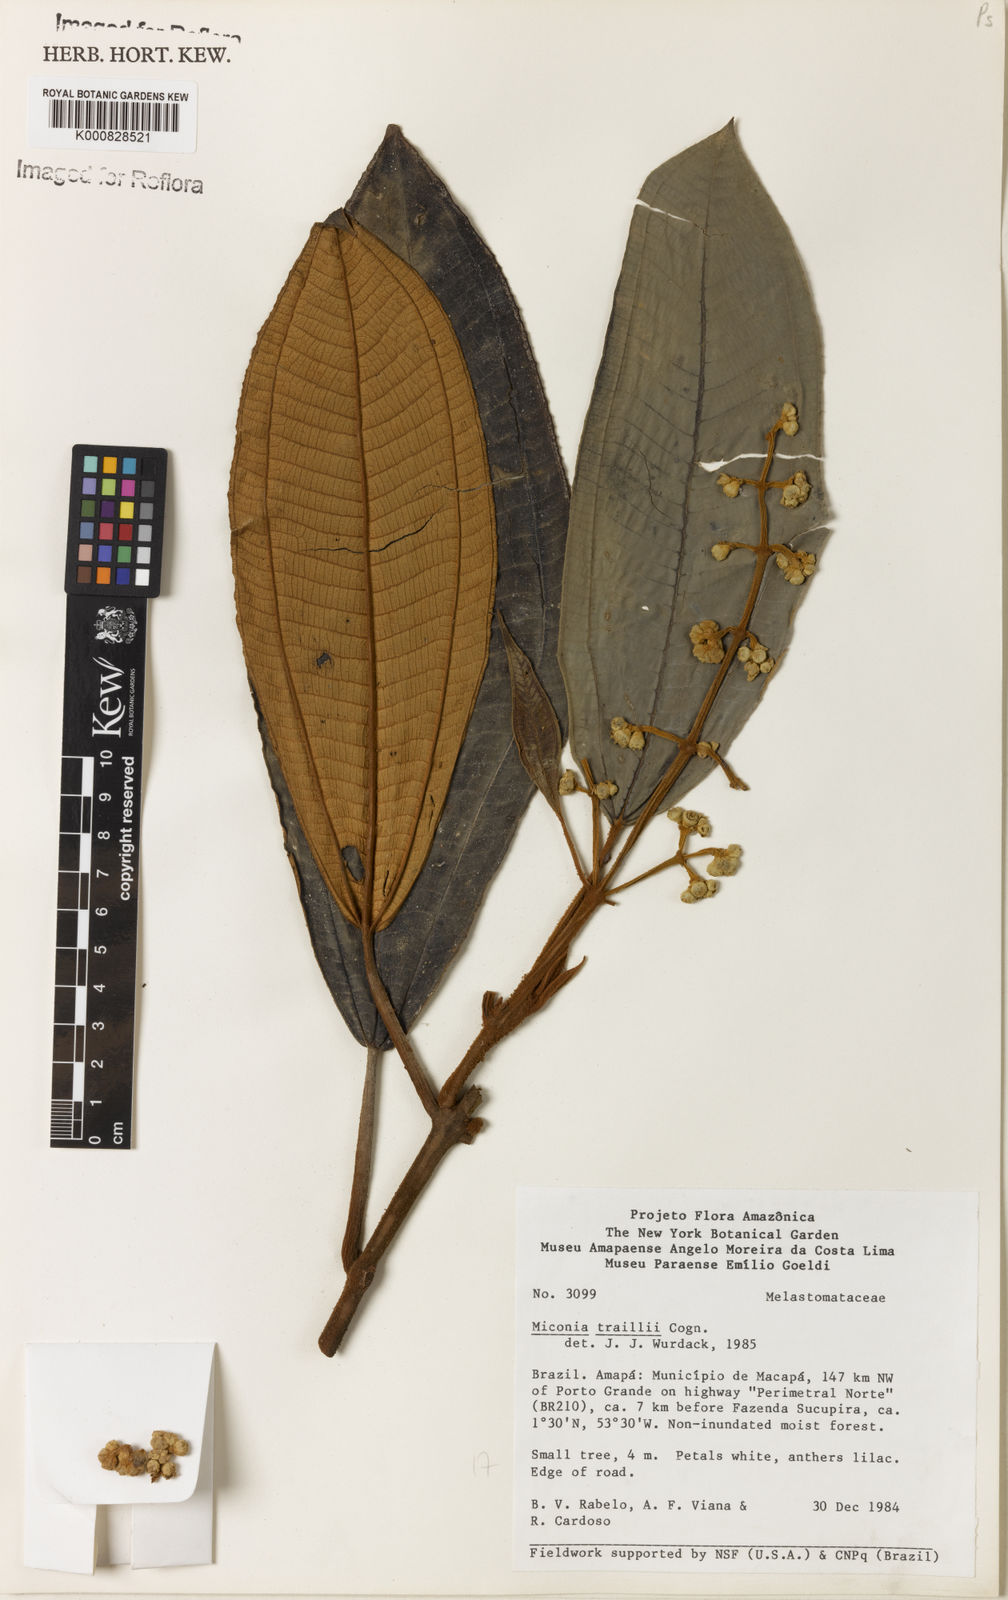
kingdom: Plantae
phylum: Tracheophyta
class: Magnoliopsida
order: Myrtales
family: Melastomataceae
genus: Miconia
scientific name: Miconia traillii
